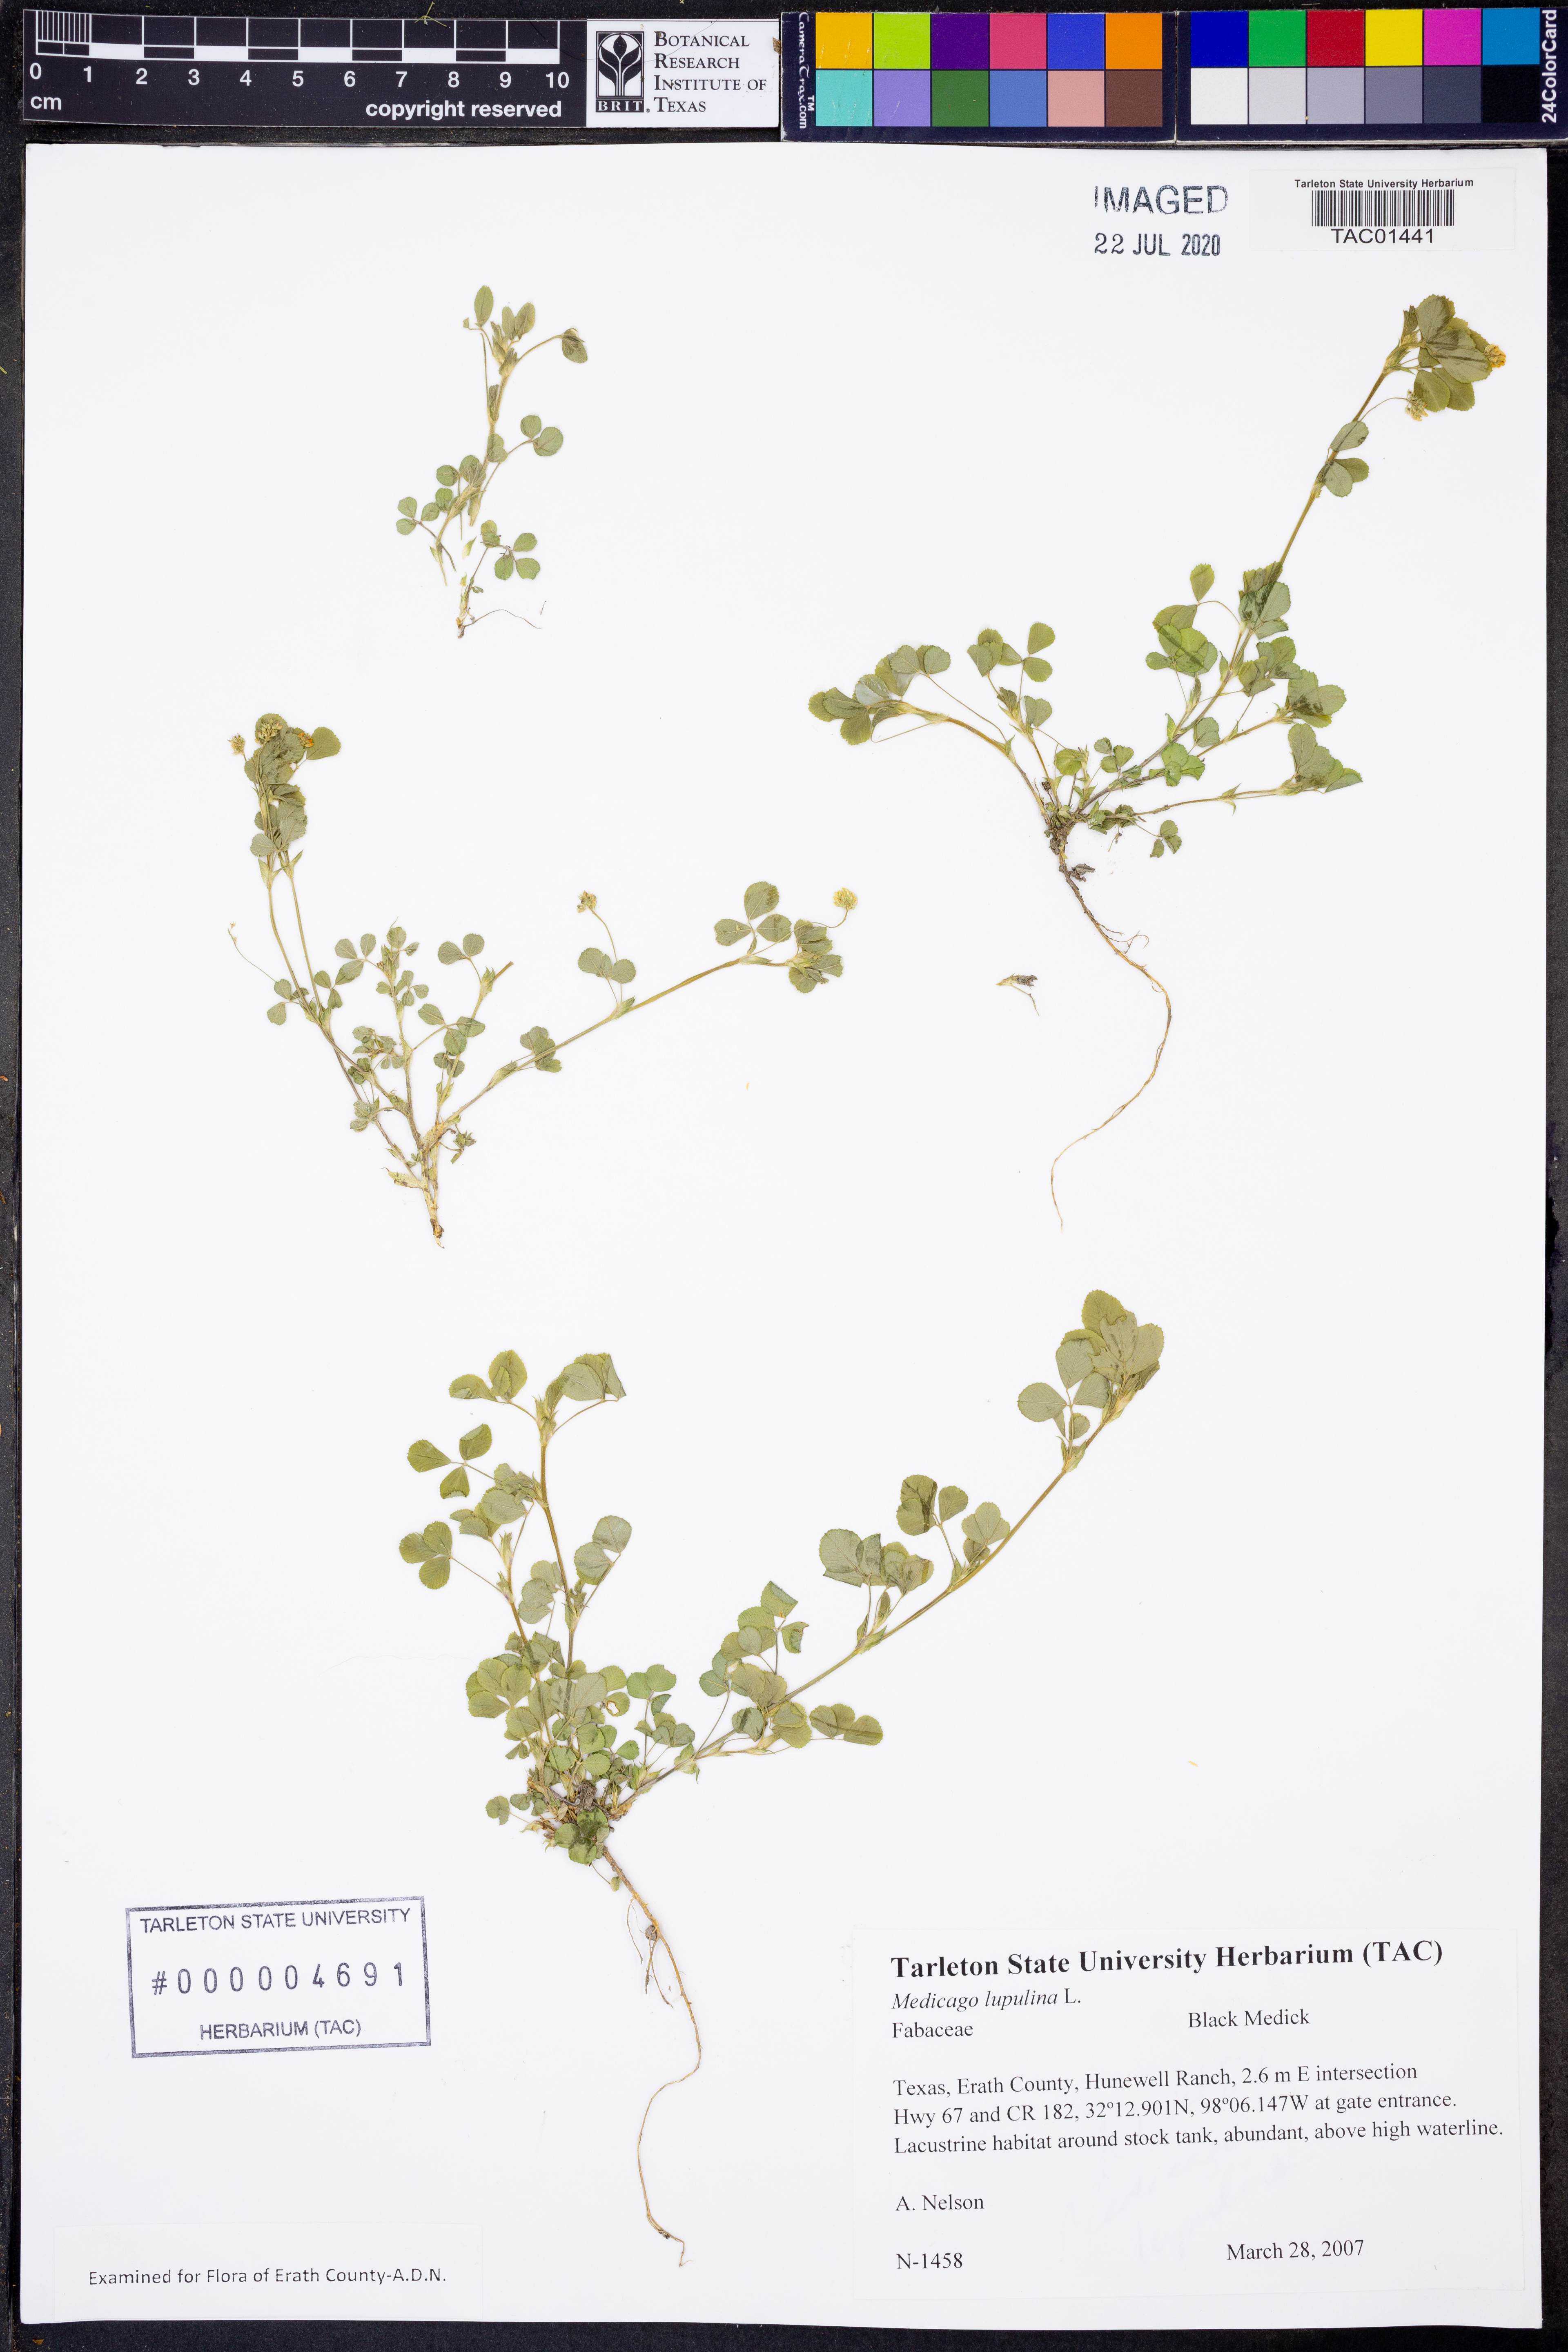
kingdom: Plantae
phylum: Tracheophyta
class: Magnoliopsida
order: Fabales
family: Fabaceae
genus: Medicago
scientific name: Medicago lupulina
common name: Black medick
